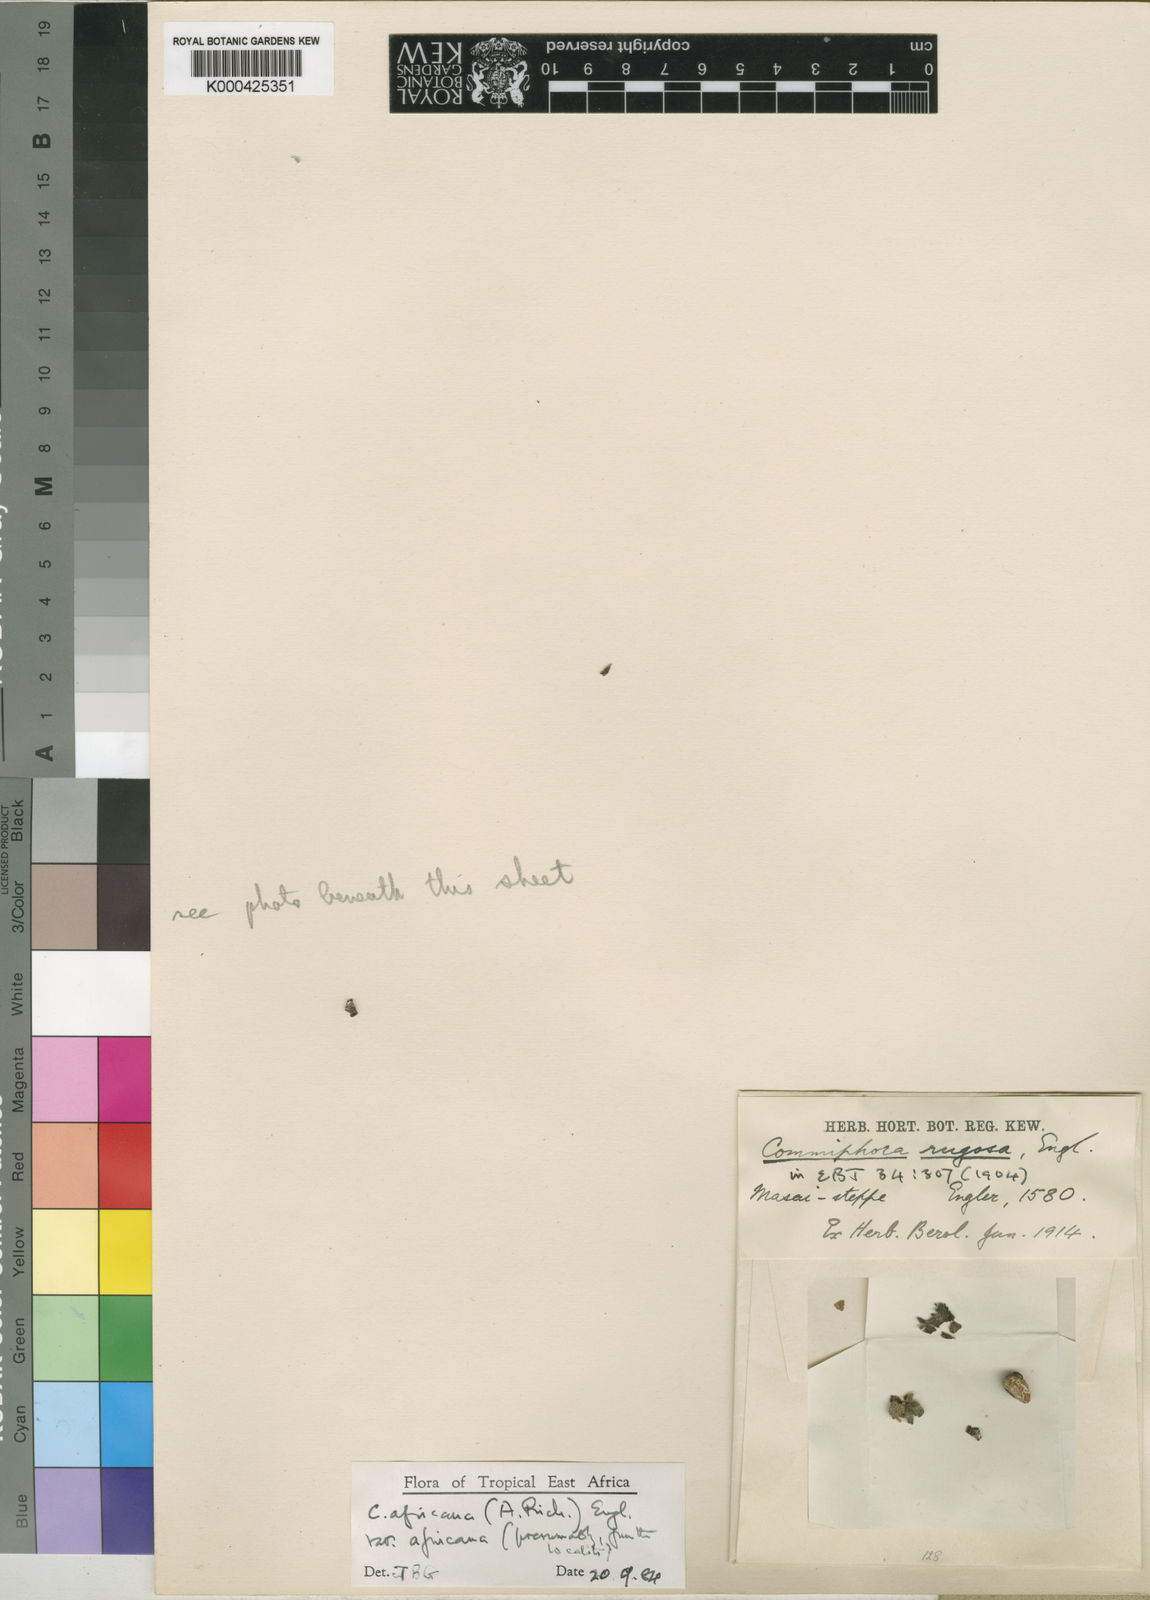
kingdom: Plantae
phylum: Tracheophyta
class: Magnoliopsida
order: Sapindales
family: Burseraceae
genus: Commiphora
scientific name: Commiphora africana
